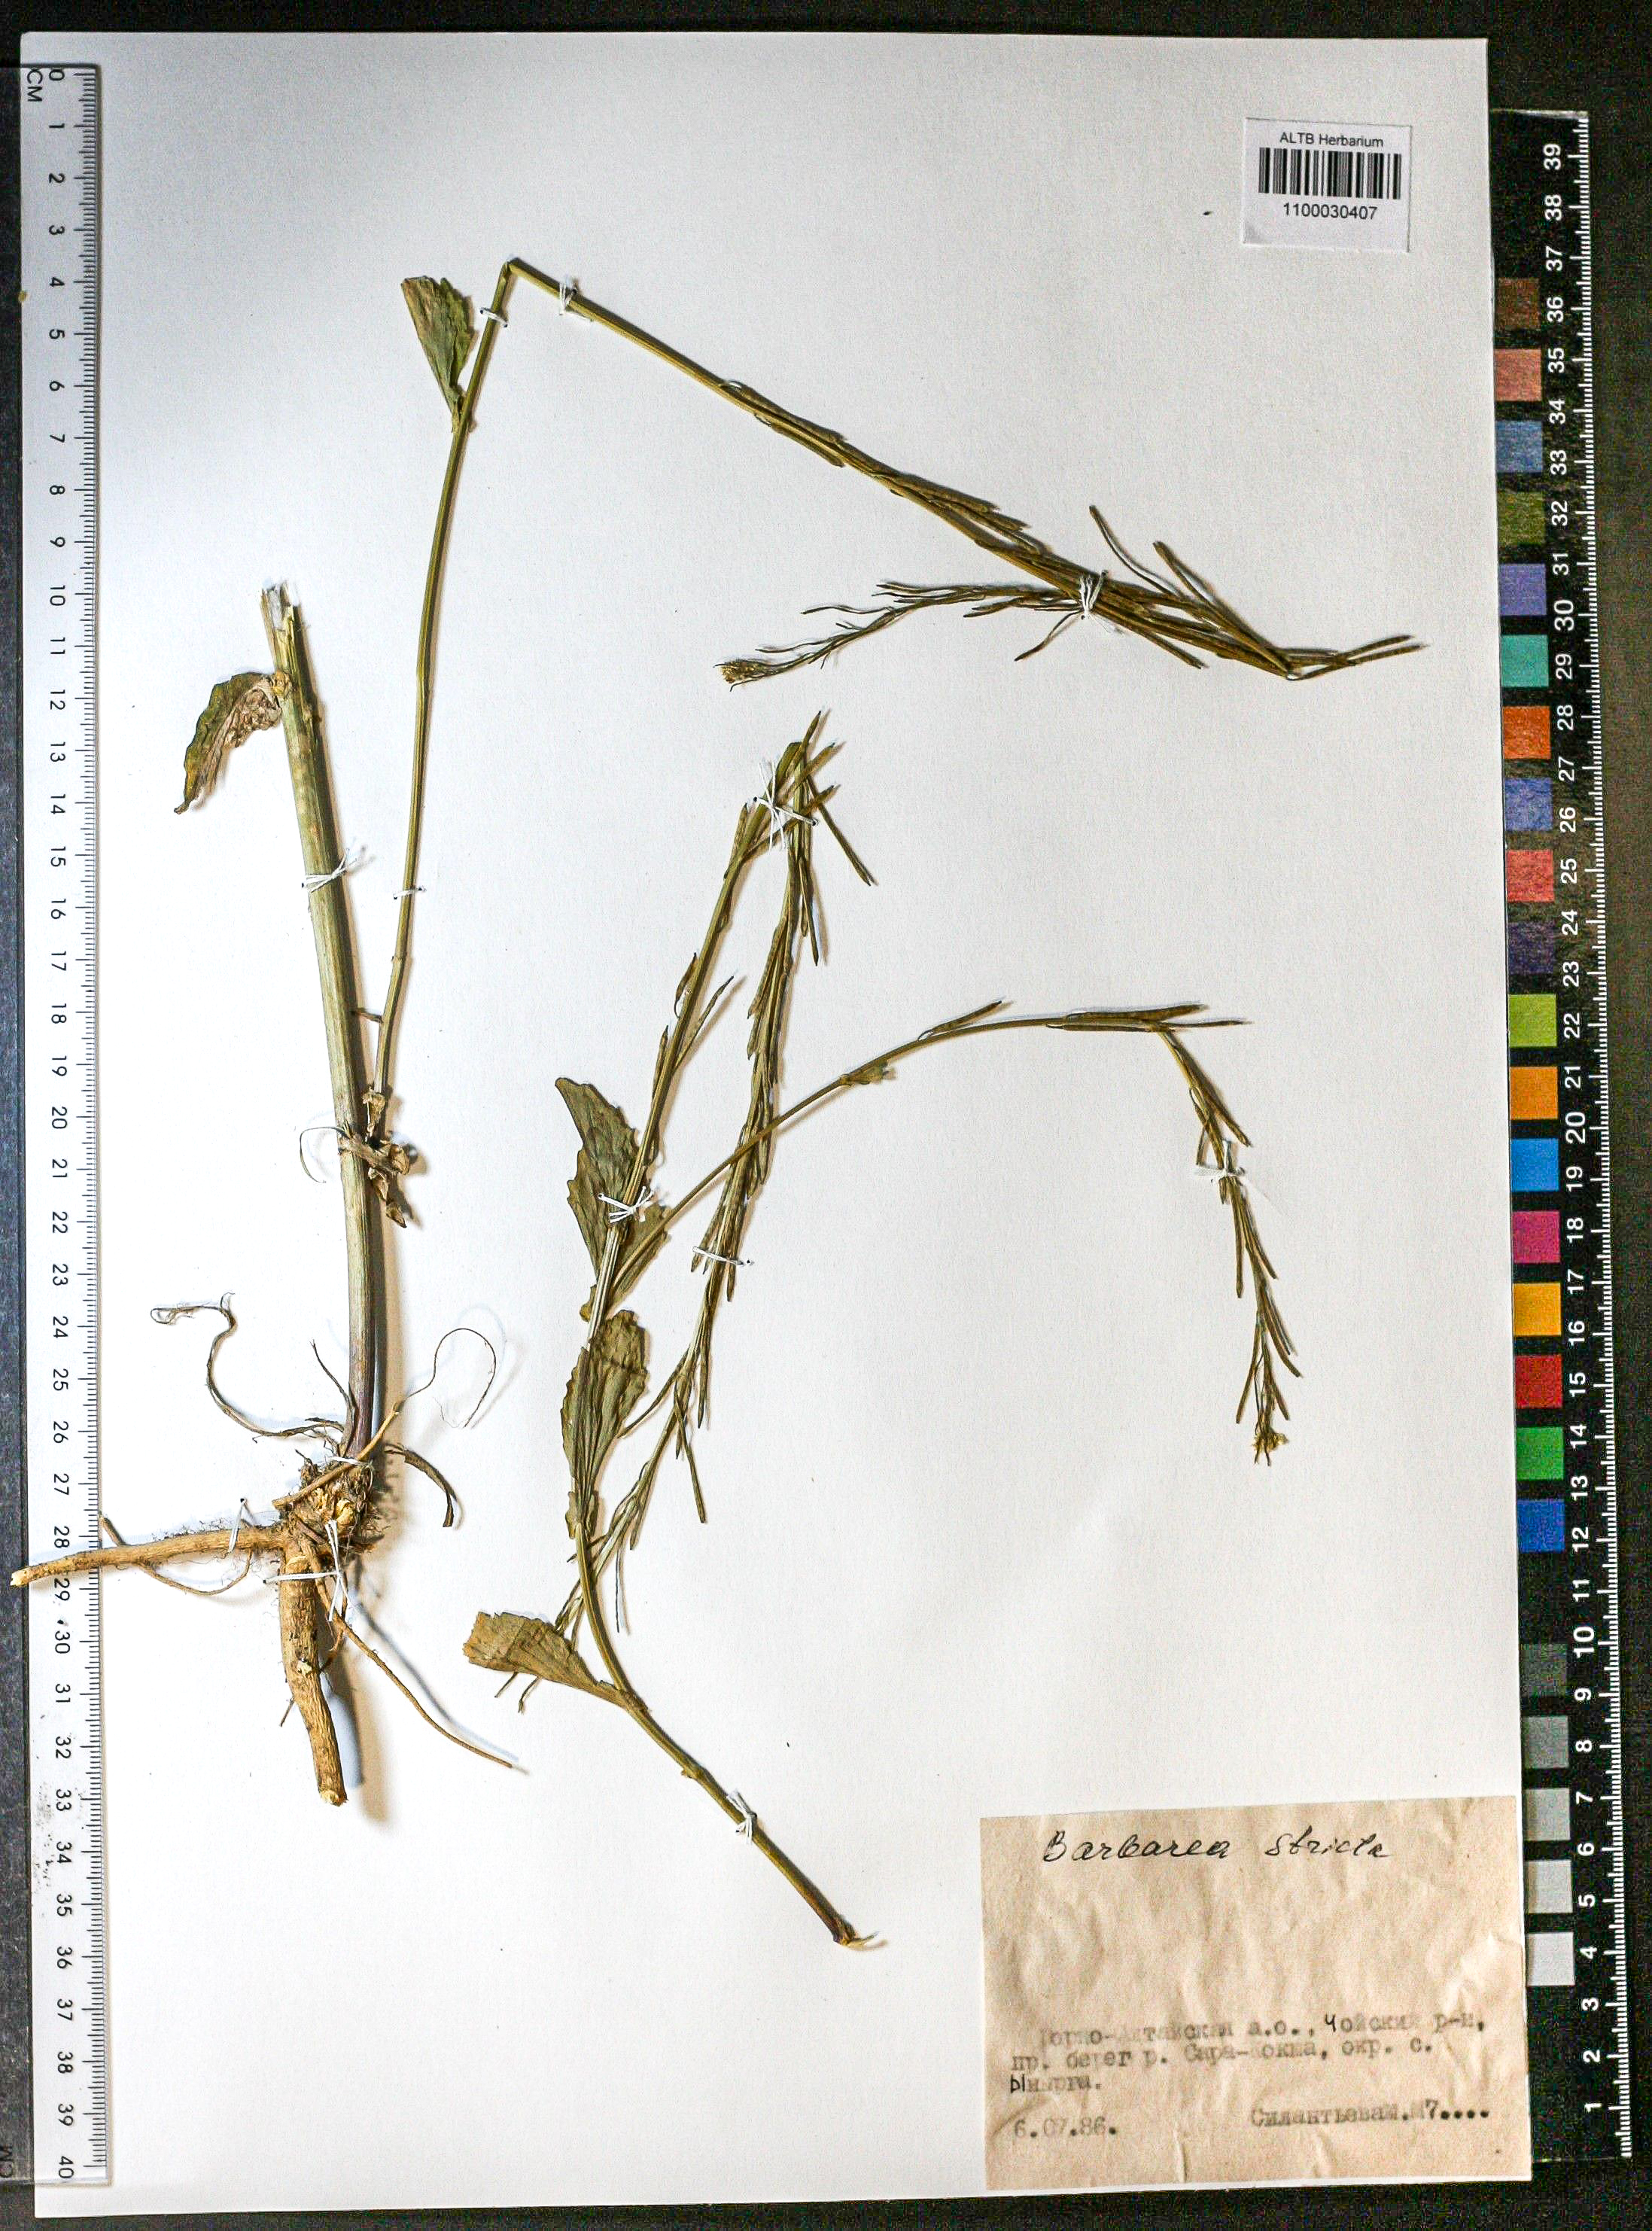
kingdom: Plantae
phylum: Tracheophyta
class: Magnoliopsida
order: Brassicales
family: Brassicaceae
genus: Barbarea
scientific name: Barbarea vulgaris
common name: Cressy-greens
